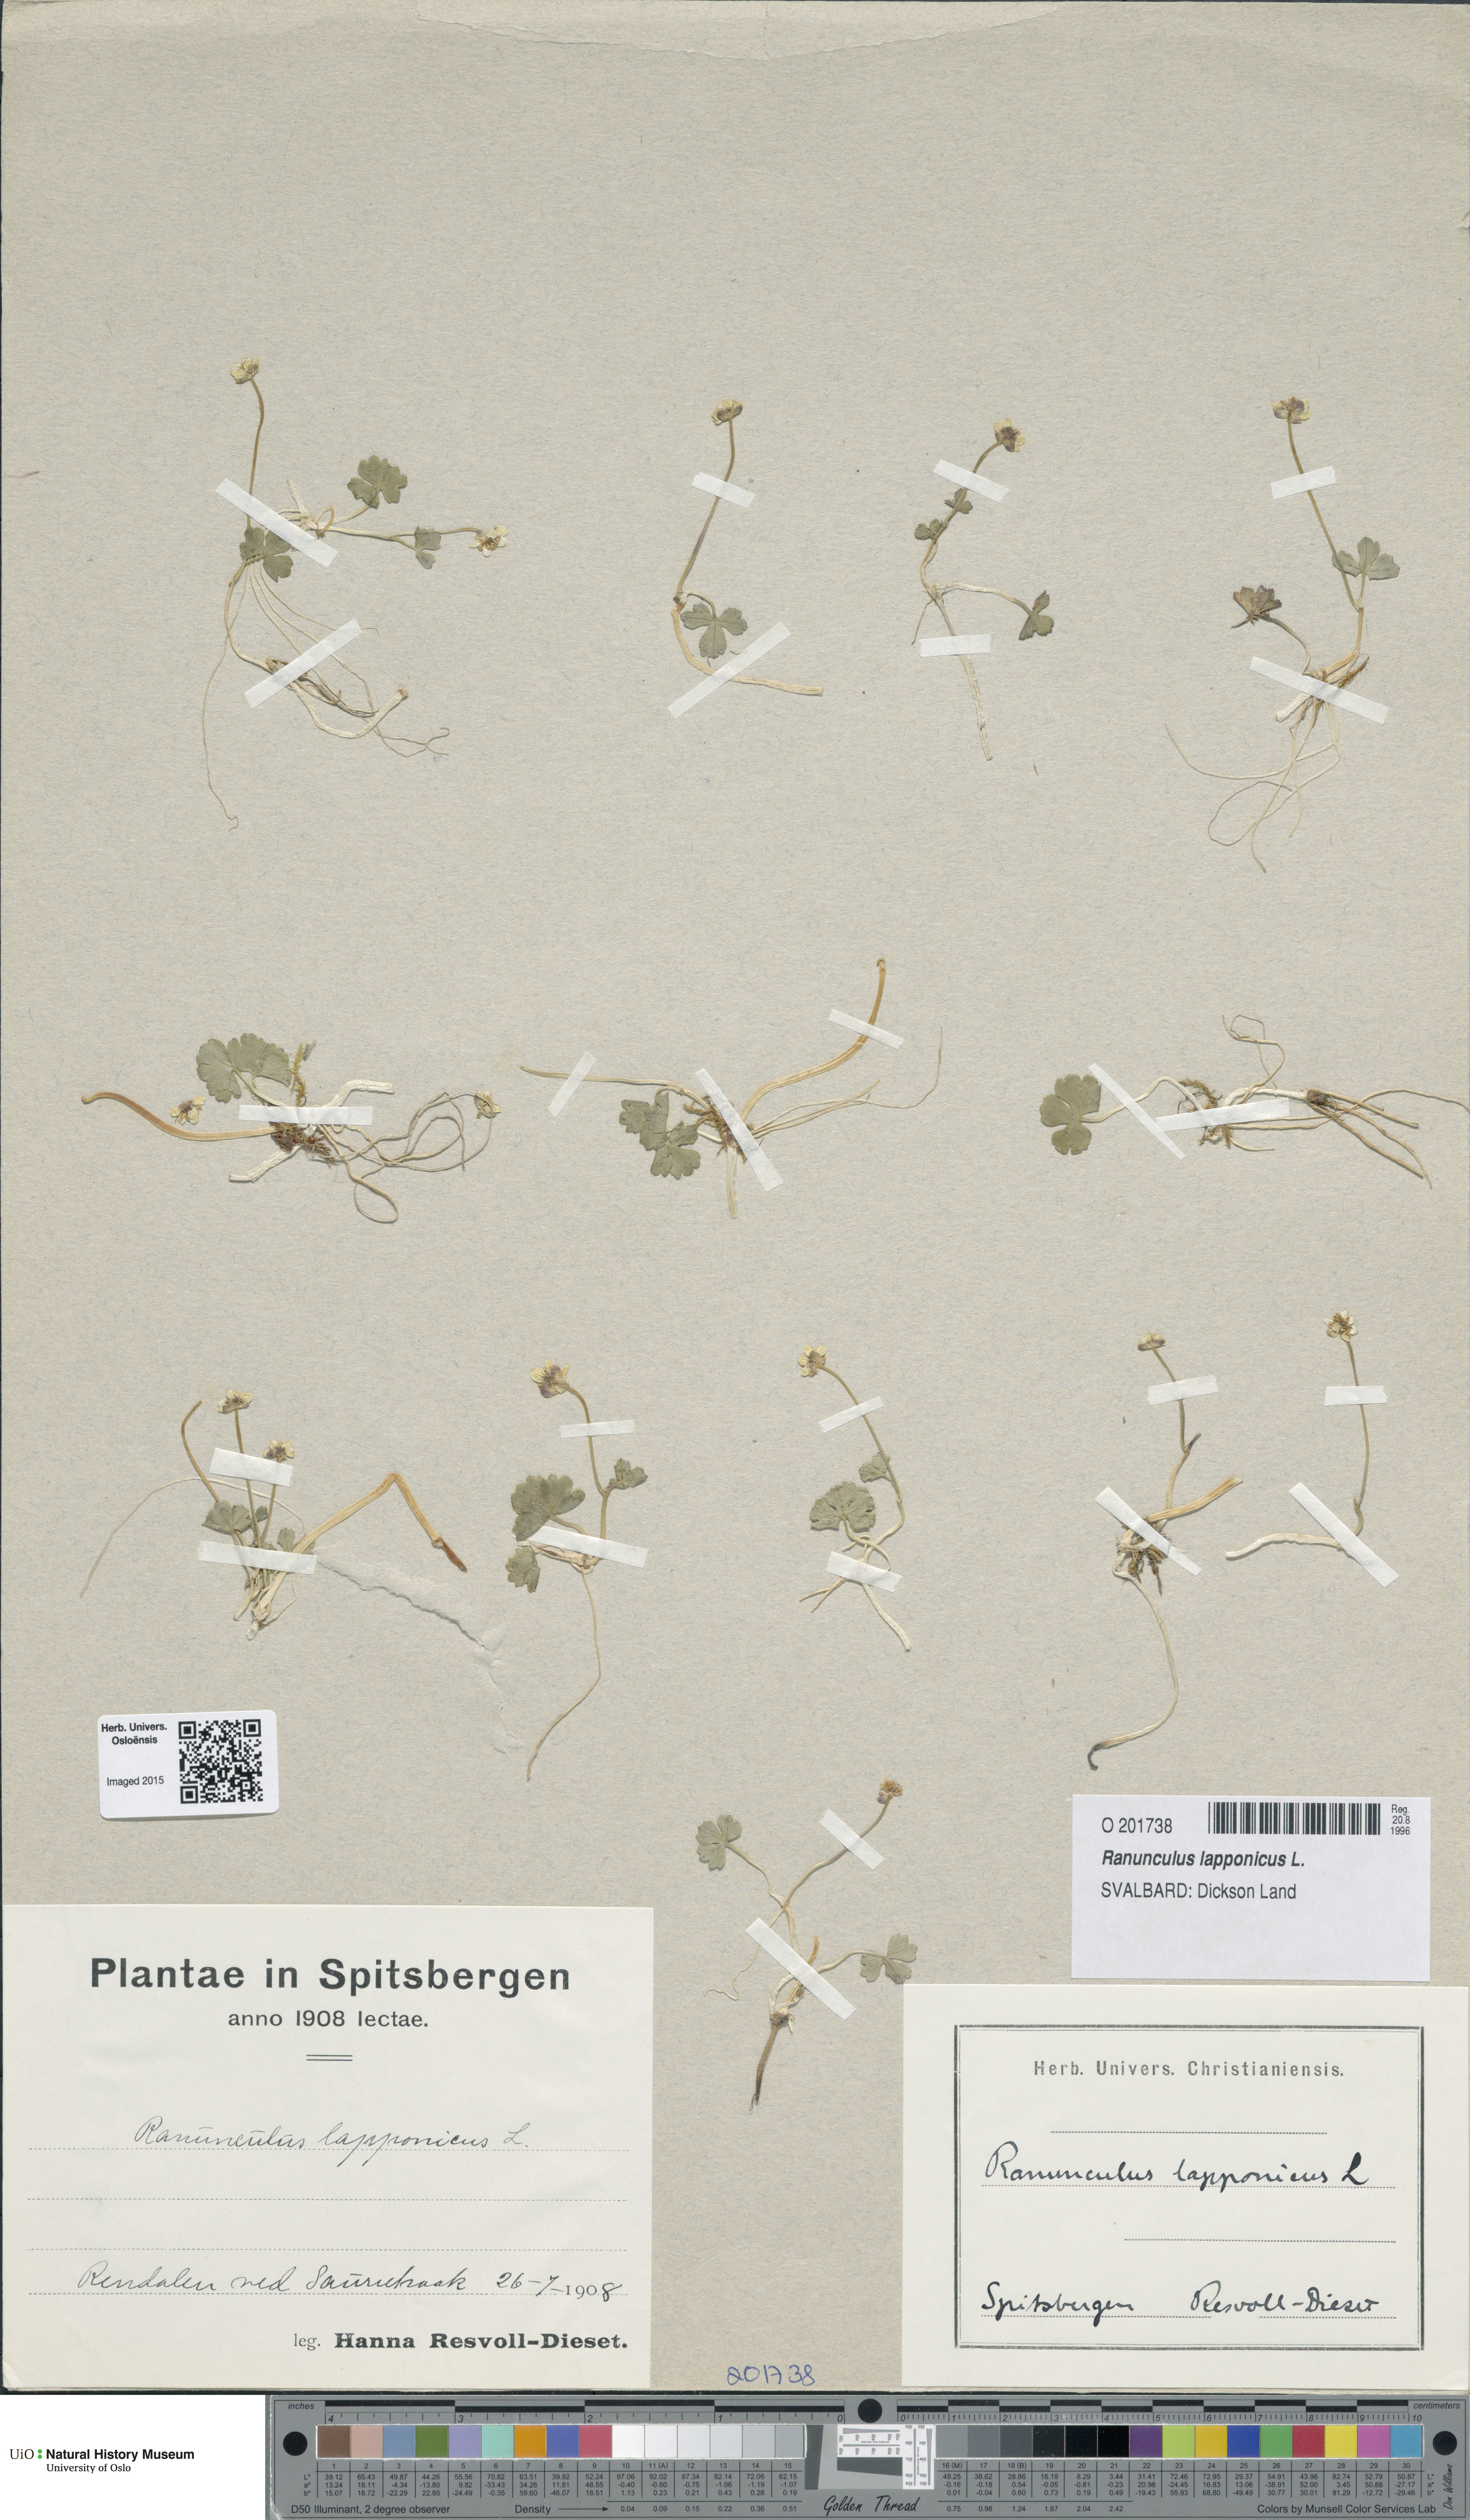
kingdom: Plantae
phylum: Tracheophyta
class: Magnoliopsida
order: Ranunculales
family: Ranunculaceae
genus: Coptidium
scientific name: Coptidium lapponicum
